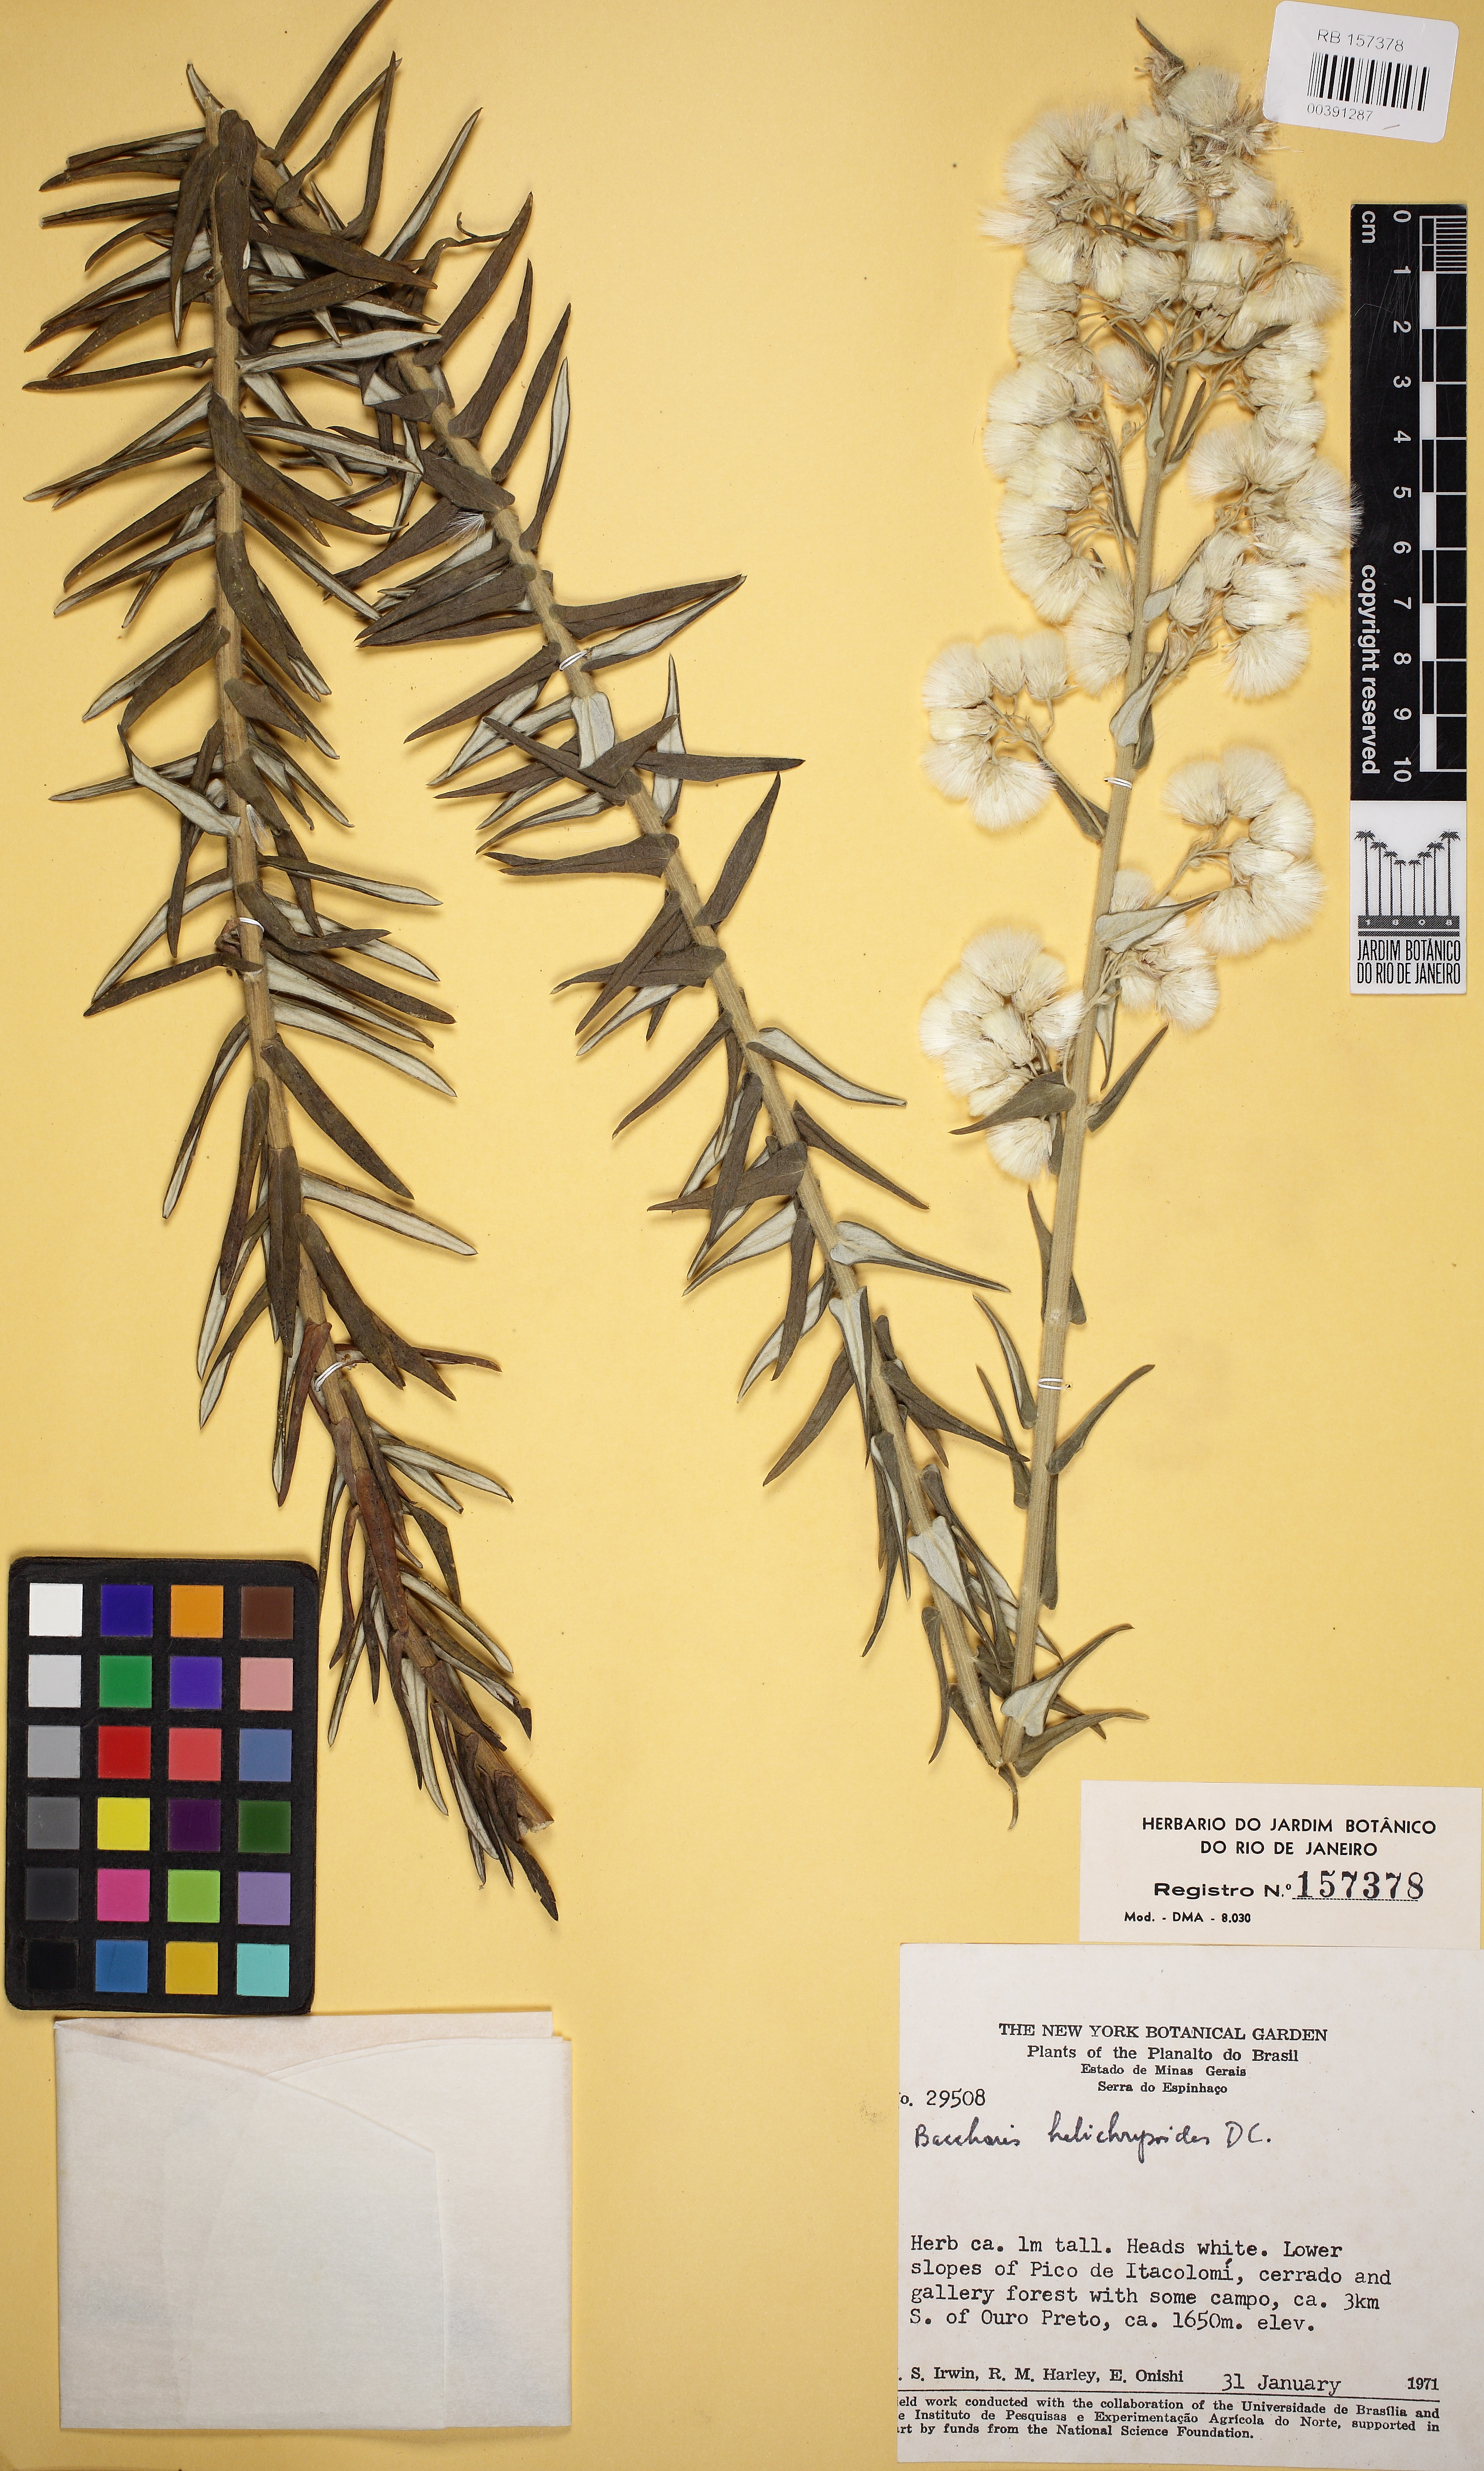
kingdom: Plantae
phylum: Tracheophyta
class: Magnoliopsida
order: Asterales
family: Asteraceae
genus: Baccharis
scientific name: Baccharis helichrysoides
